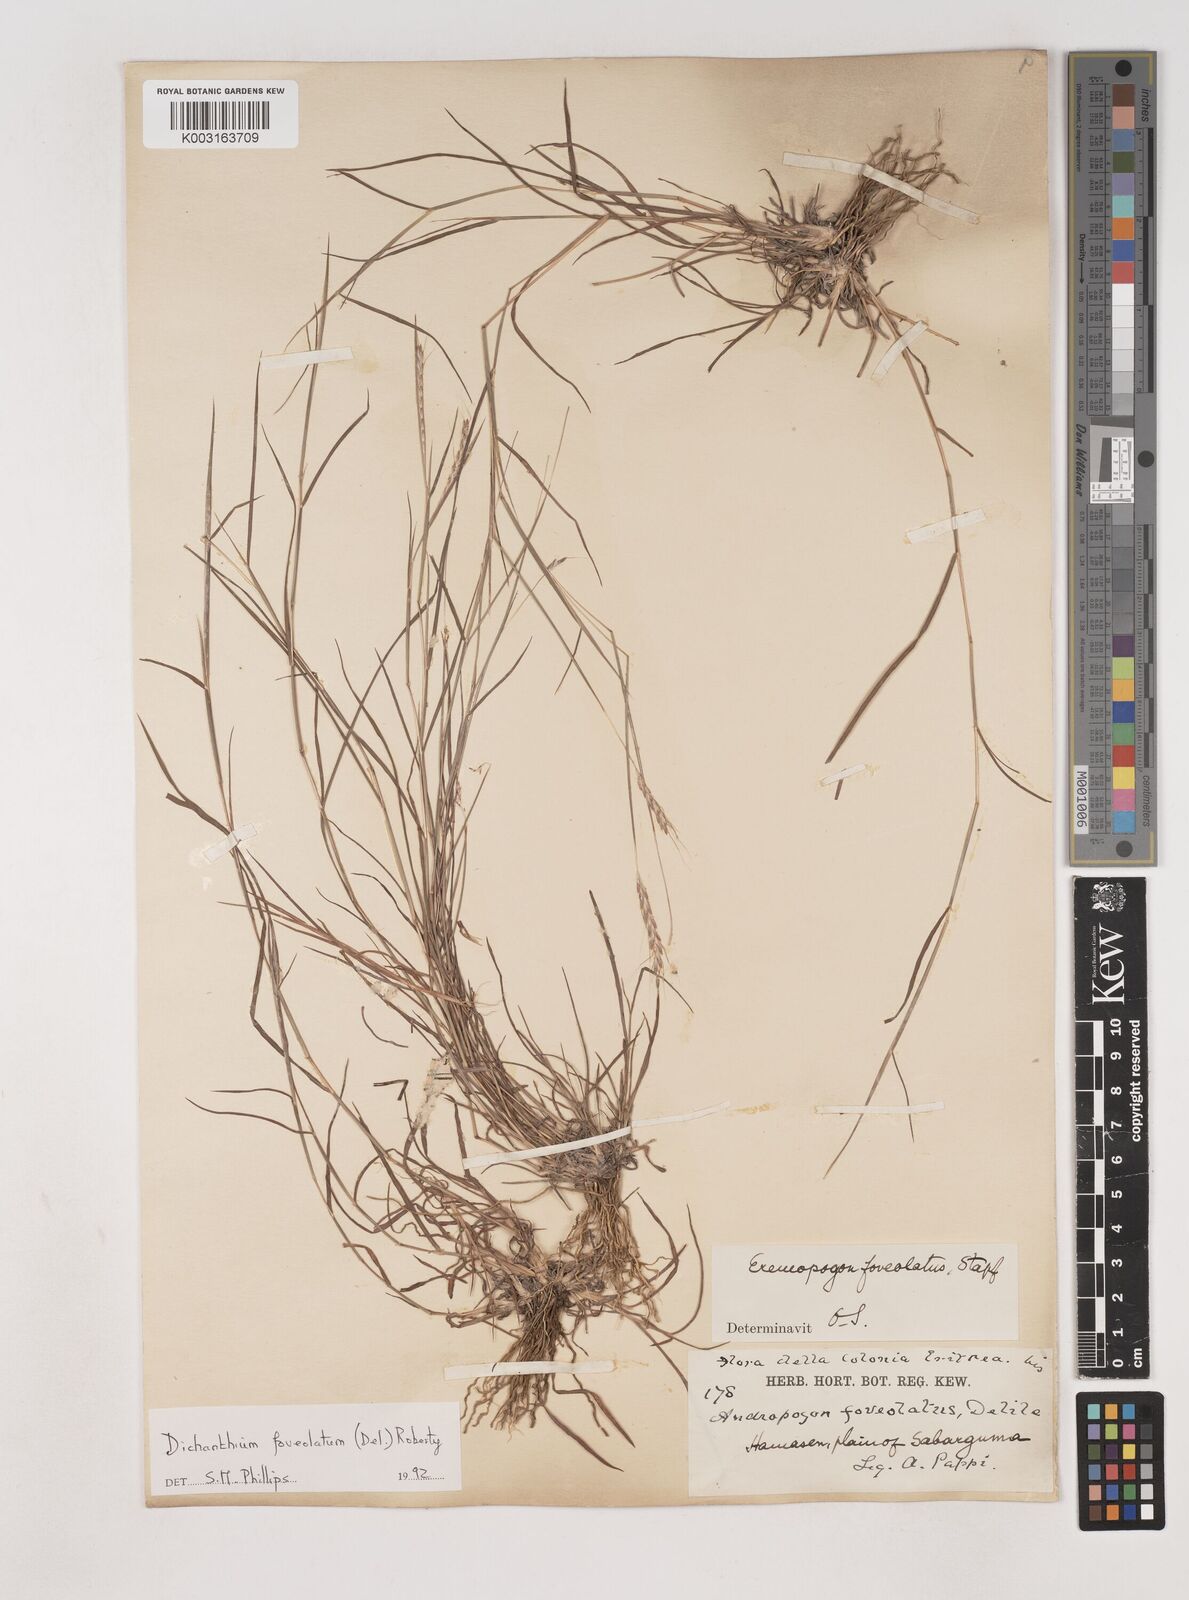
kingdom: Plantae
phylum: Tracheophyta
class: Liliopsida
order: Poales
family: Poaceae
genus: Dichanthium
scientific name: Dichanthium foveolatum
